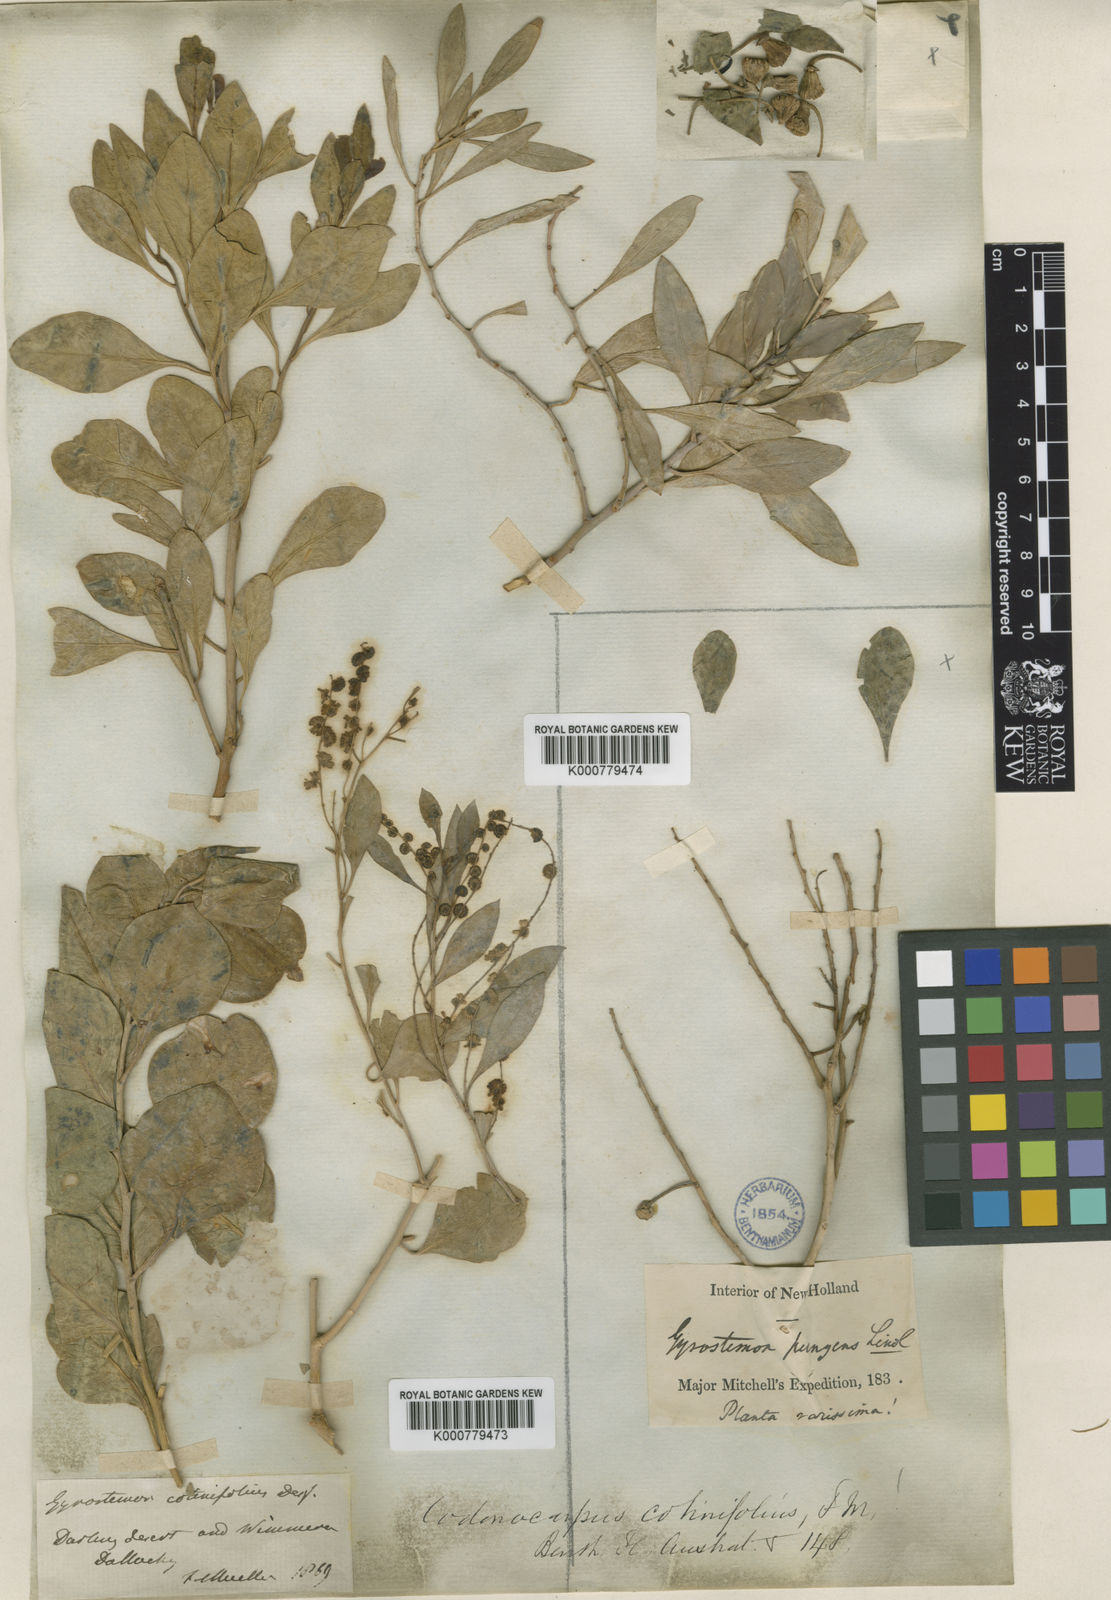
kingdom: Plantae
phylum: Tracheophyta
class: Magnoliopsida
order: Brassicales
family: Gyrostemonaceae
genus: Codonocarpus
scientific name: Codonocarpus cotinifolius
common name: Mustardtree
